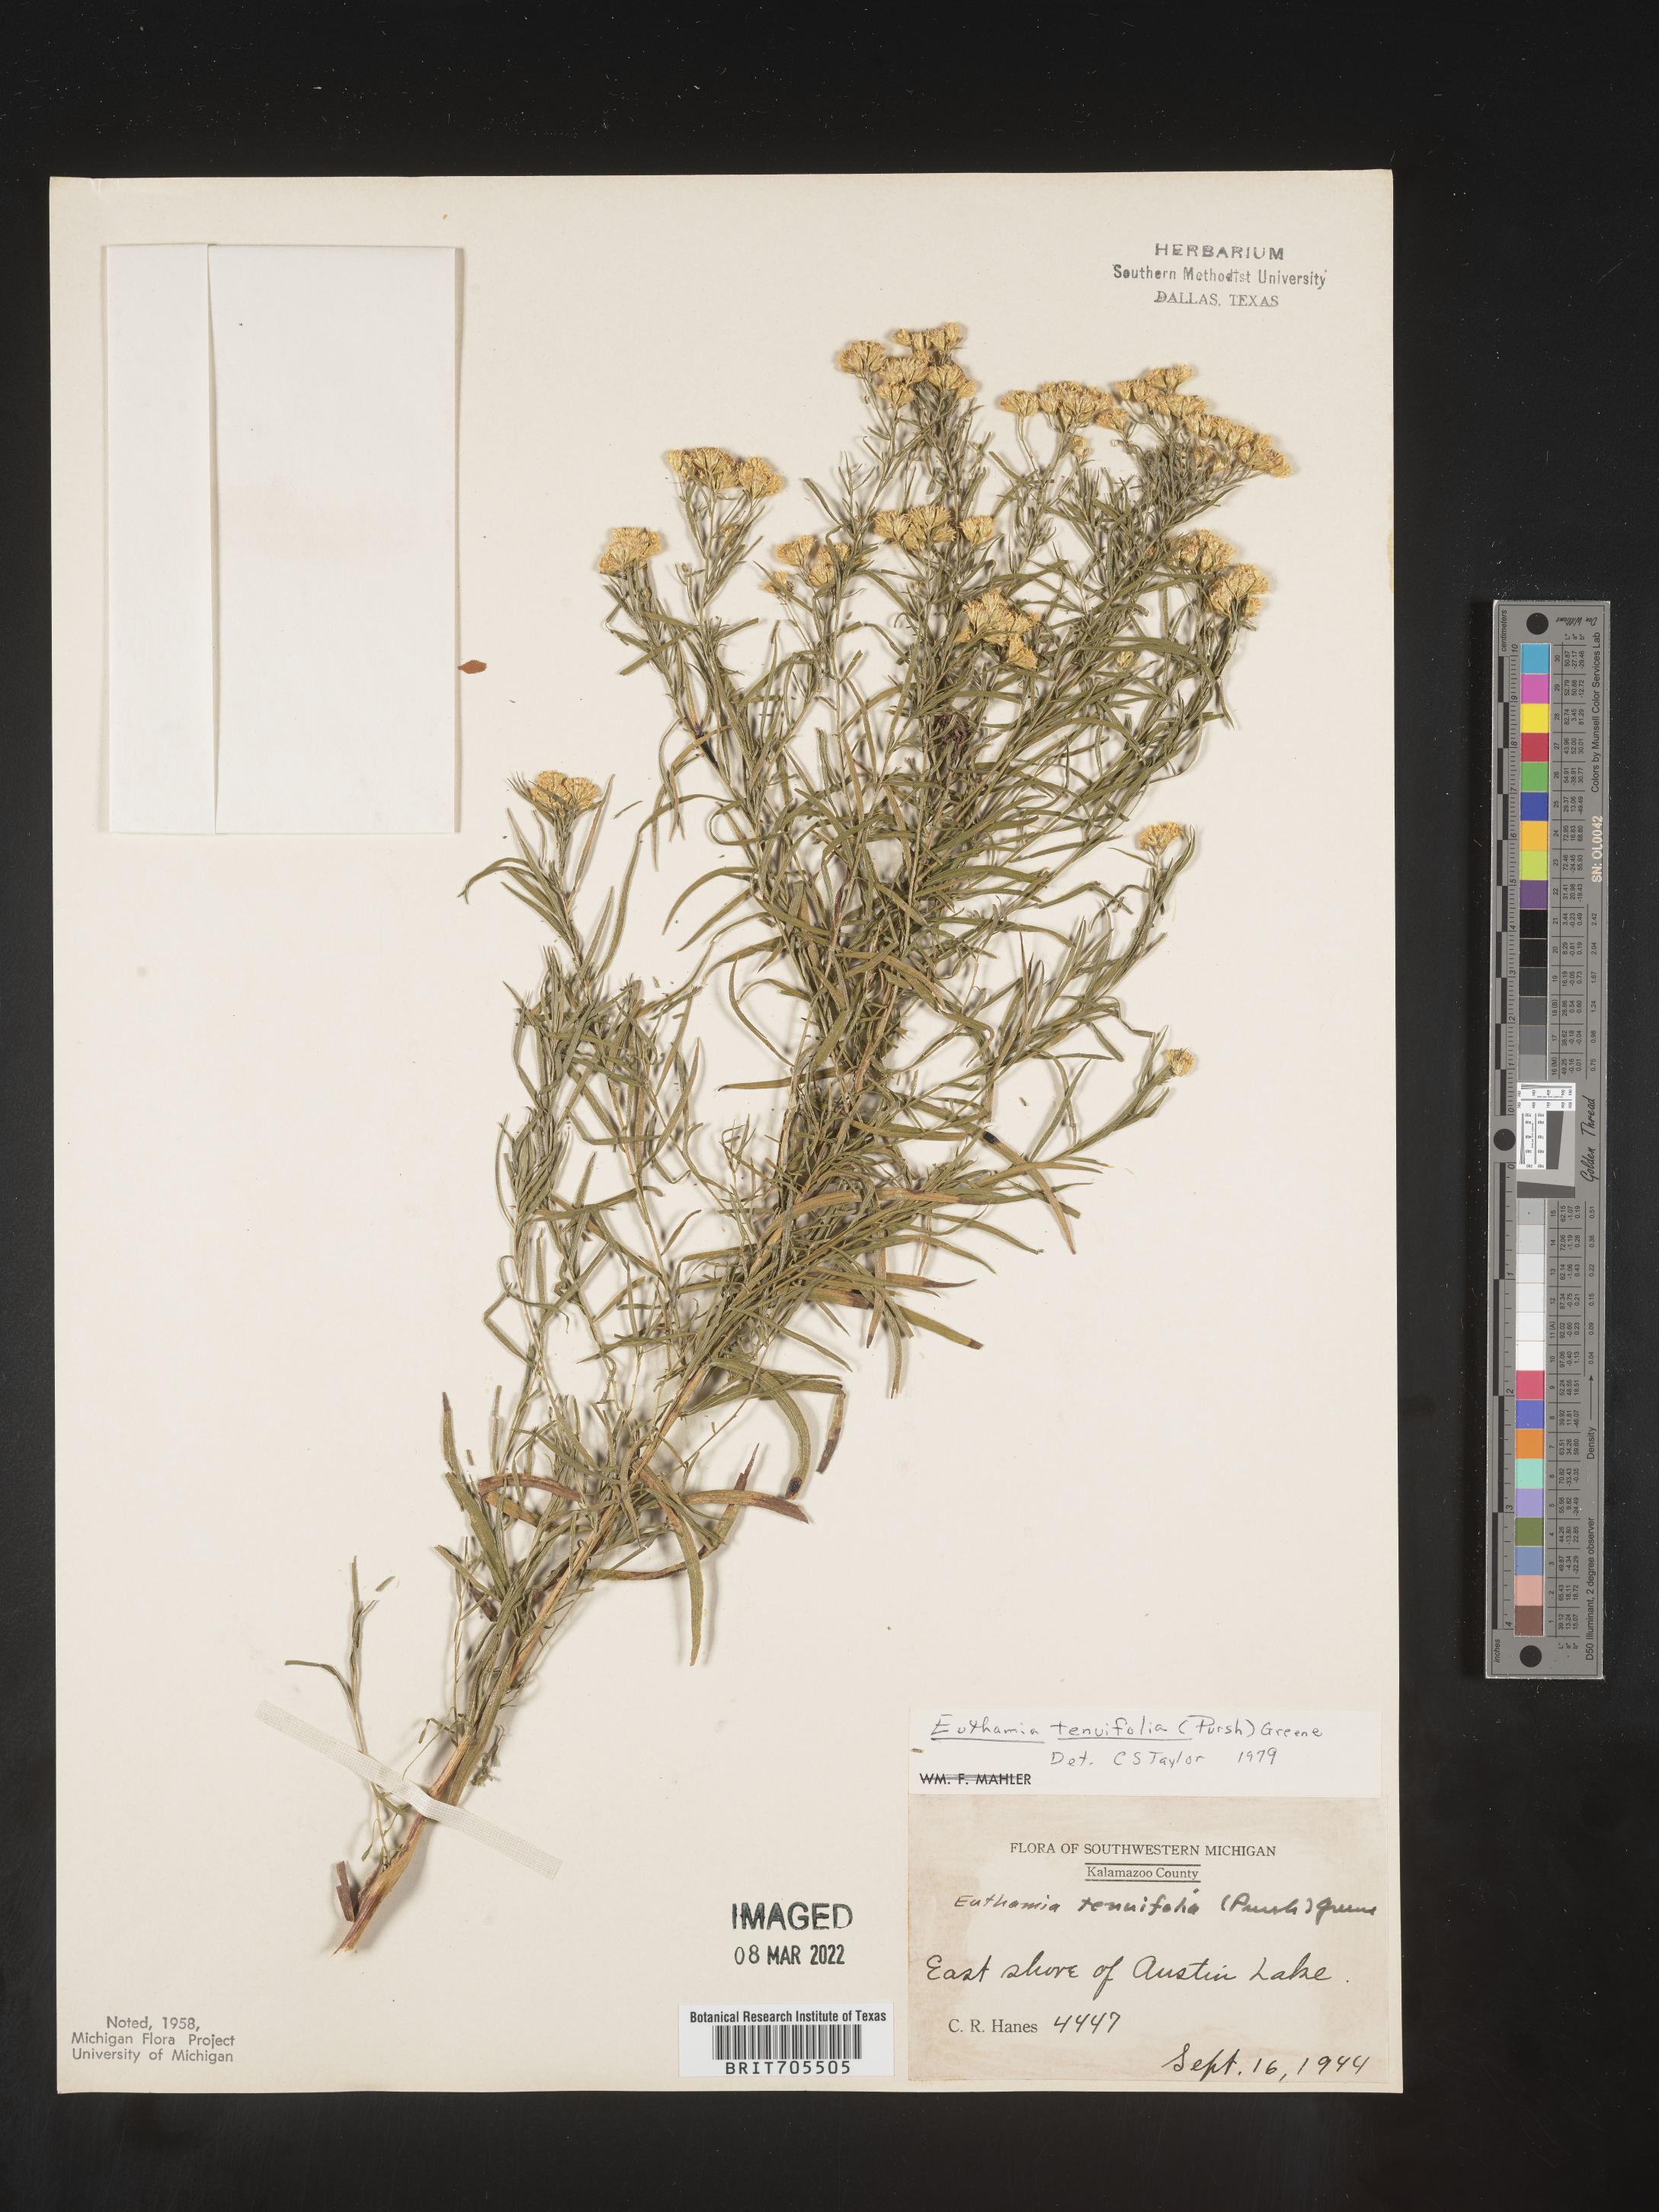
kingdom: Plantae
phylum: Tracheophyta
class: Magnoliopsida
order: Asterales
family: Asteraceae
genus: Euthamia
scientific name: Euthamia caroliniana
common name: Coastal plain goldentop
